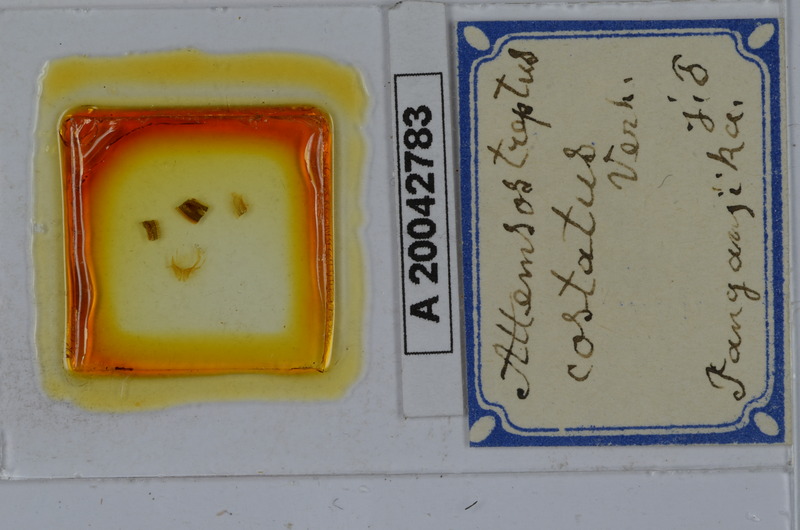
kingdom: Animalia
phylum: Arthropoda
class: Diplopoda
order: Spirostreptida
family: Spirostreptidae
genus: Attemsostreptus
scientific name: Attemsostreptus costatus
